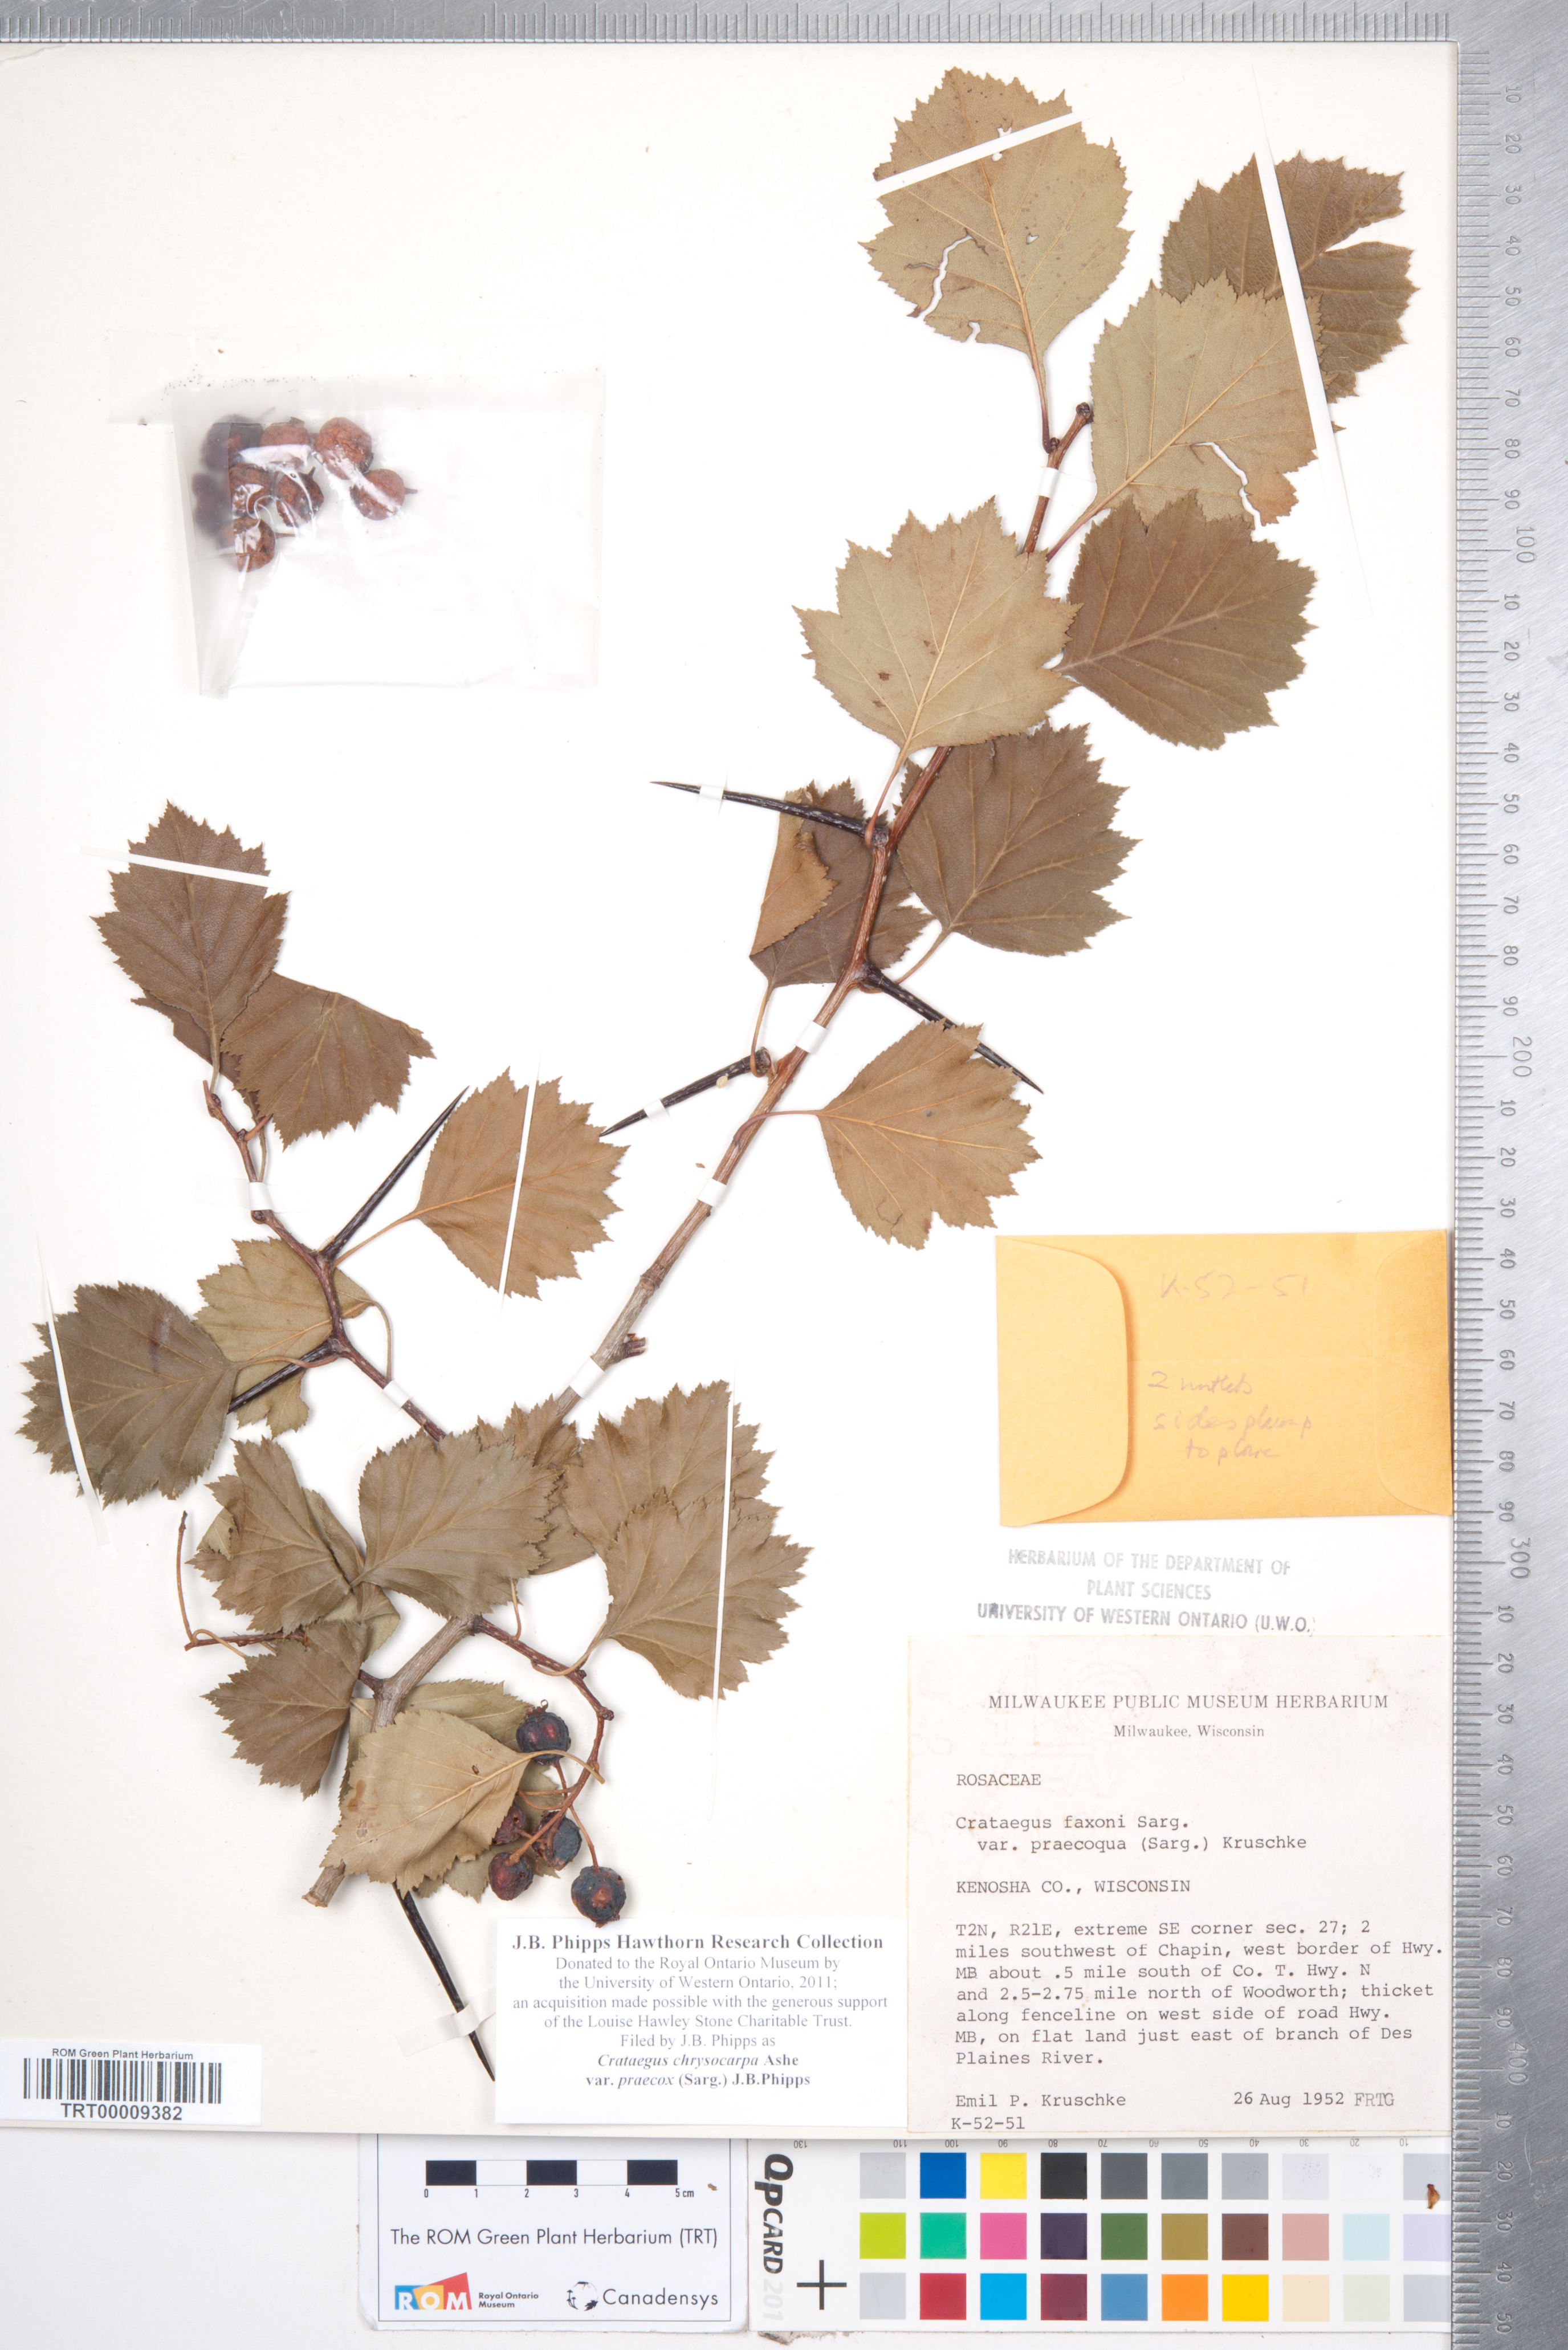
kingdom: Plantae
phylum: Tracheophyta
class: Magnoliopsida
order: Rosales
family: Rosaceae
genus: Crataegus
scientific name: Crataegus chrysocarpa
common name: Fire-berry hawthorn
